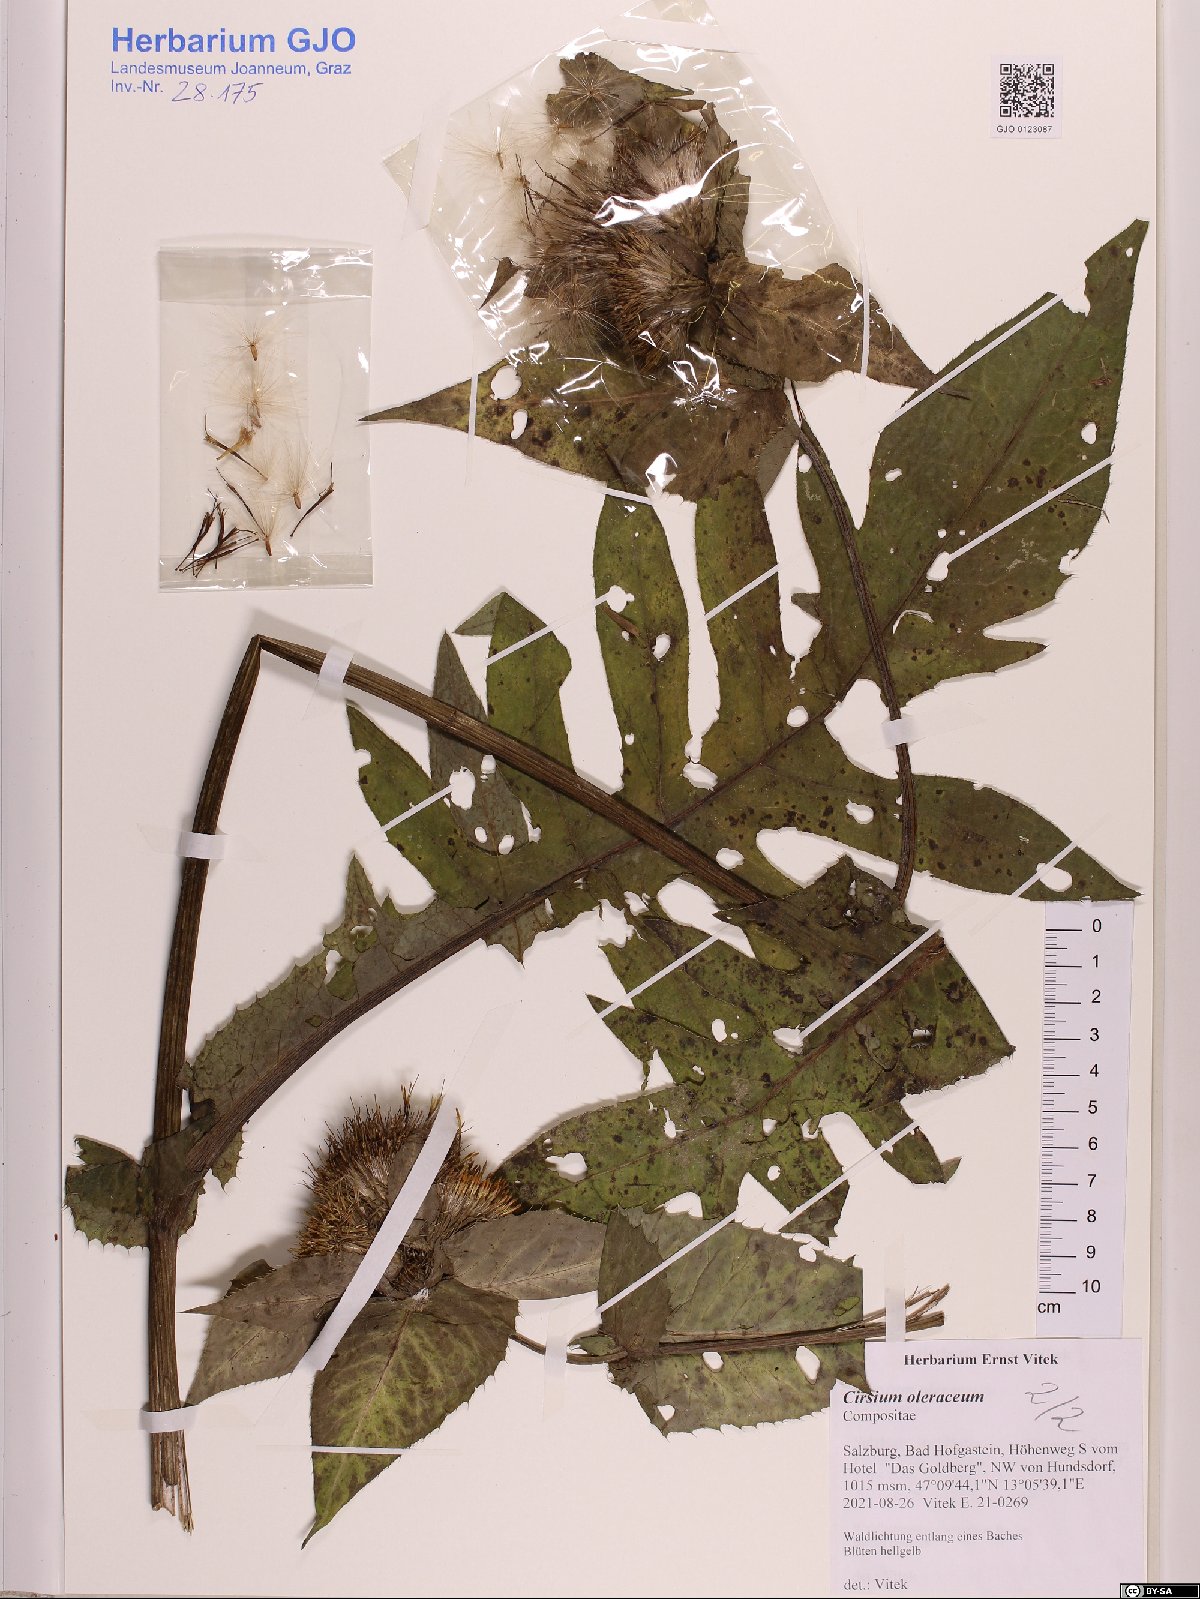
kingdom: Plantae
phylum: Tracheophyta
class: Magnoliopsida
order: Asterales
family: Asteraceae
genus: Cirsium
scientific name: Cirsium oleraceum
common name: Cabbage thistle
